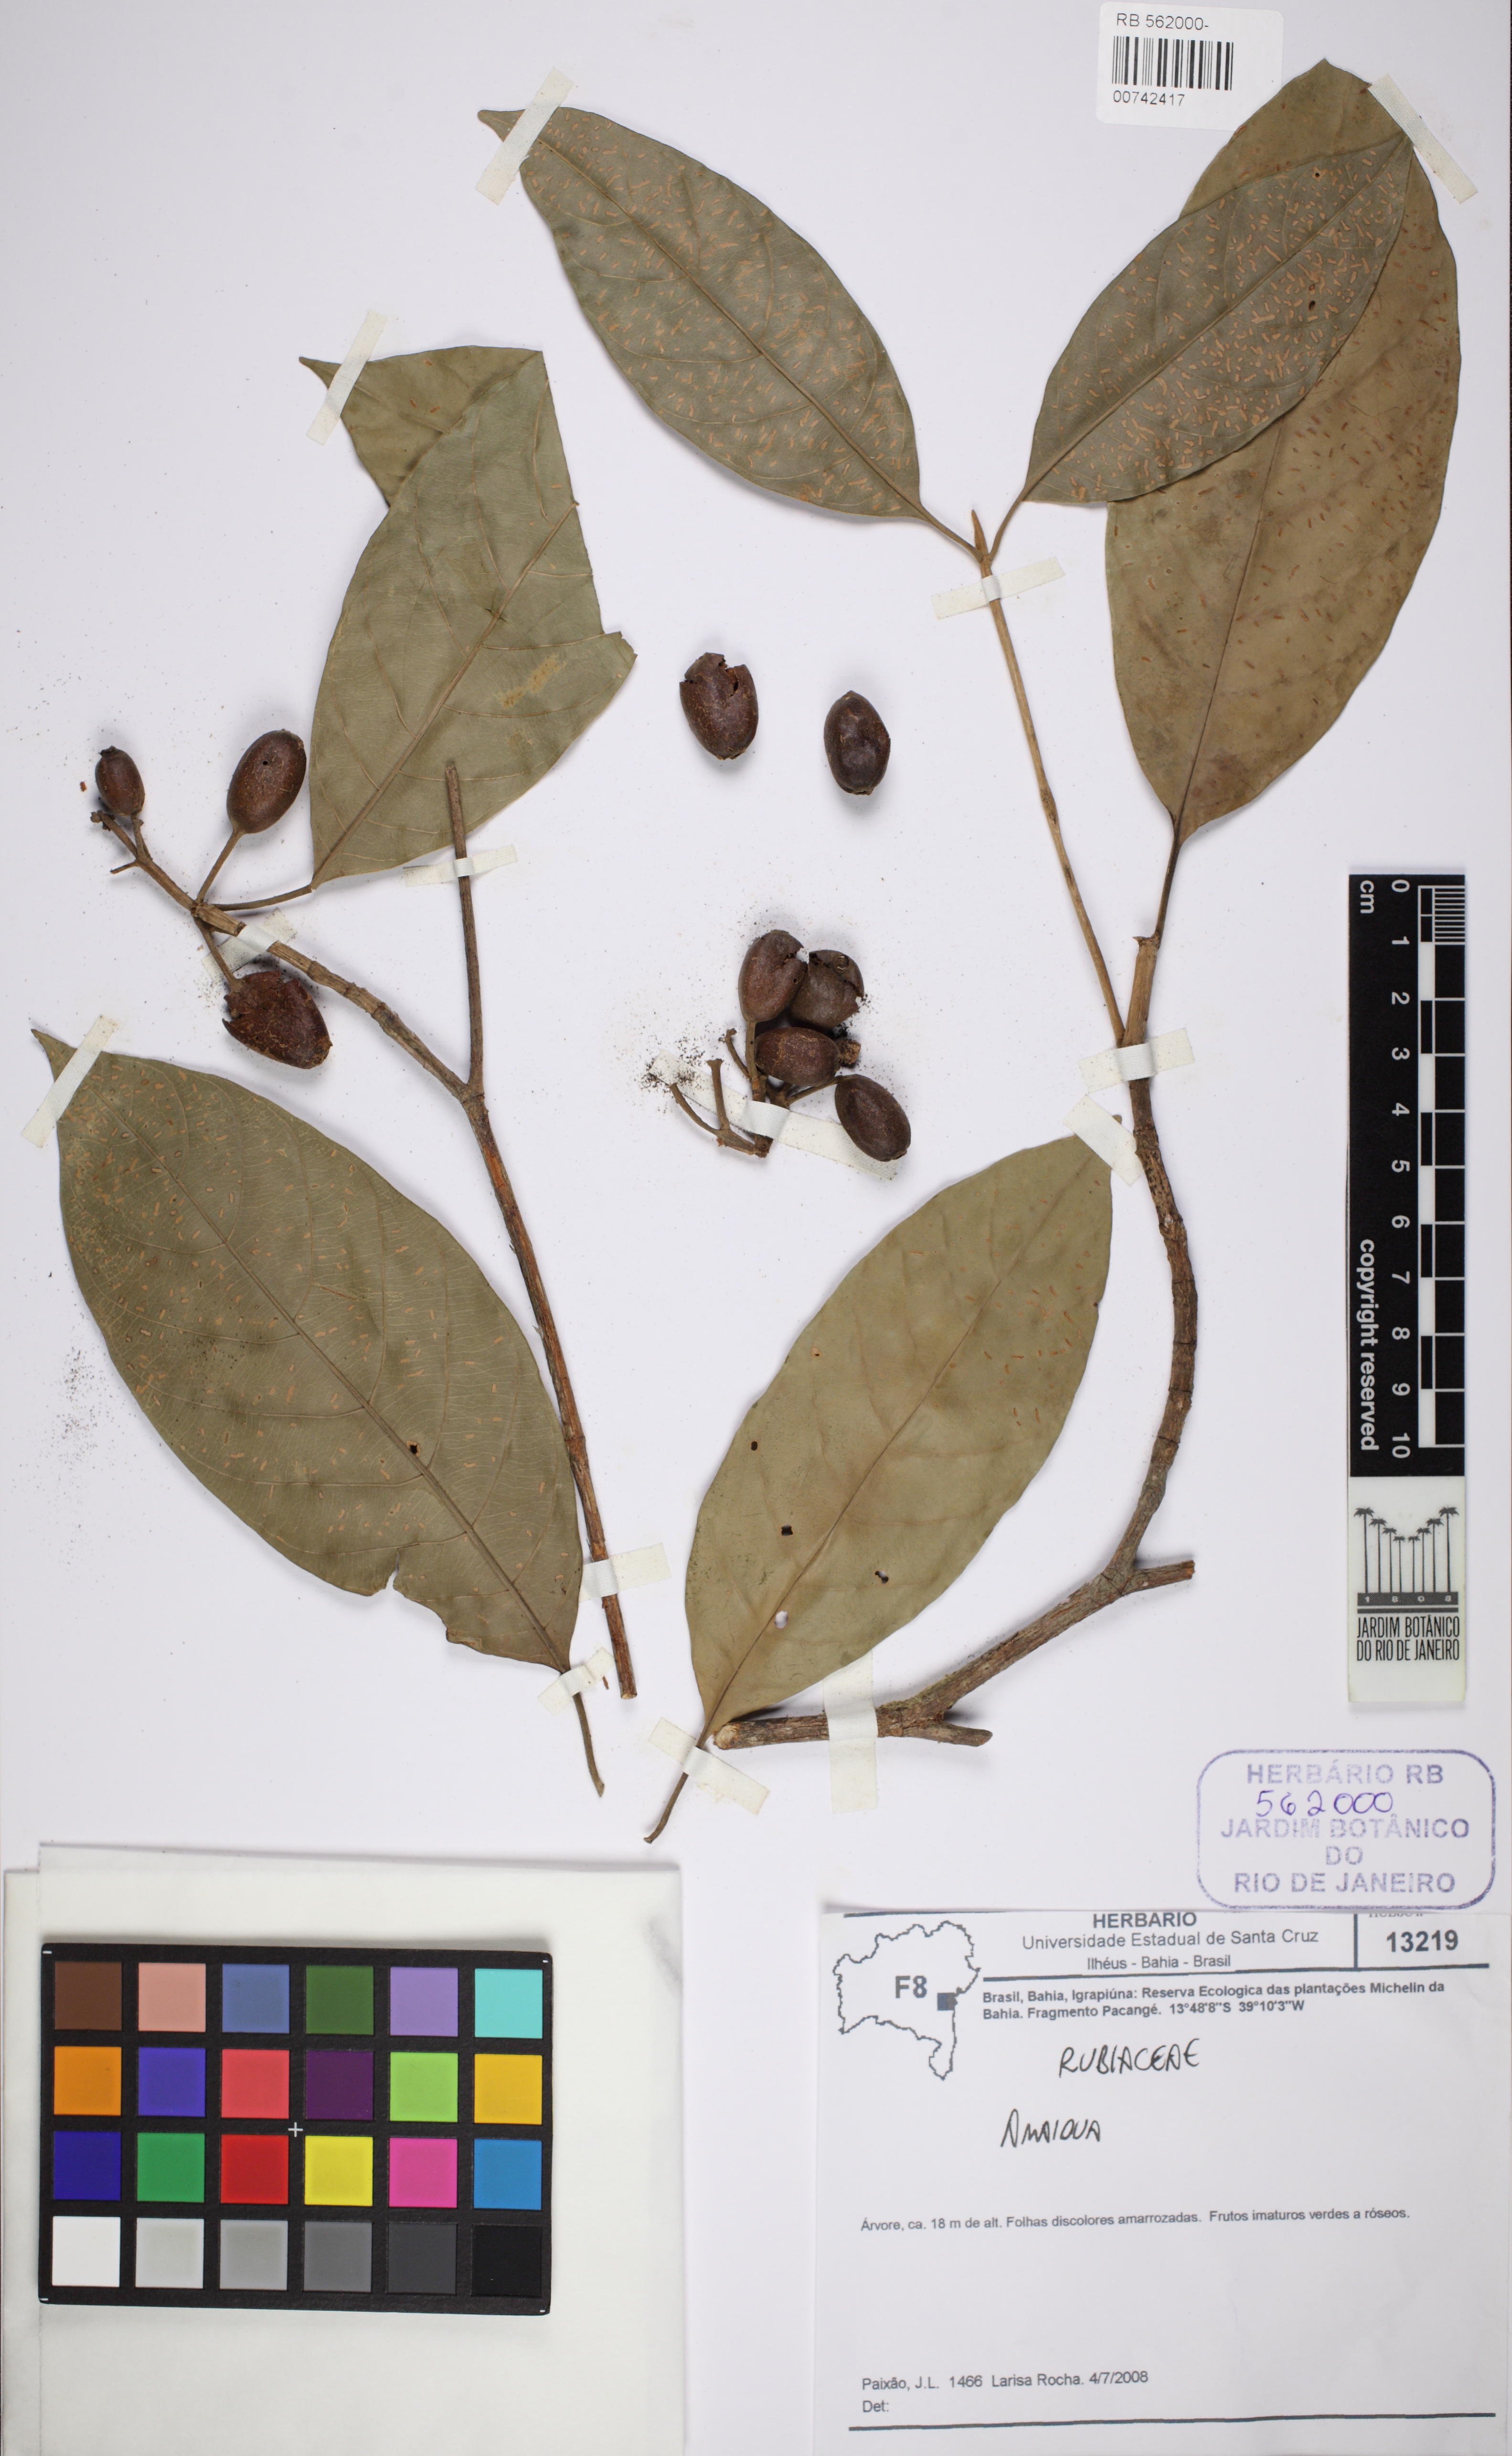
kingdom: Plantae
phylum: Tracheophyta
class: Magnoliopsida
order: Gentianales
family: Rubiaceae
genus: Amaioua
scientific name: Amaioua
